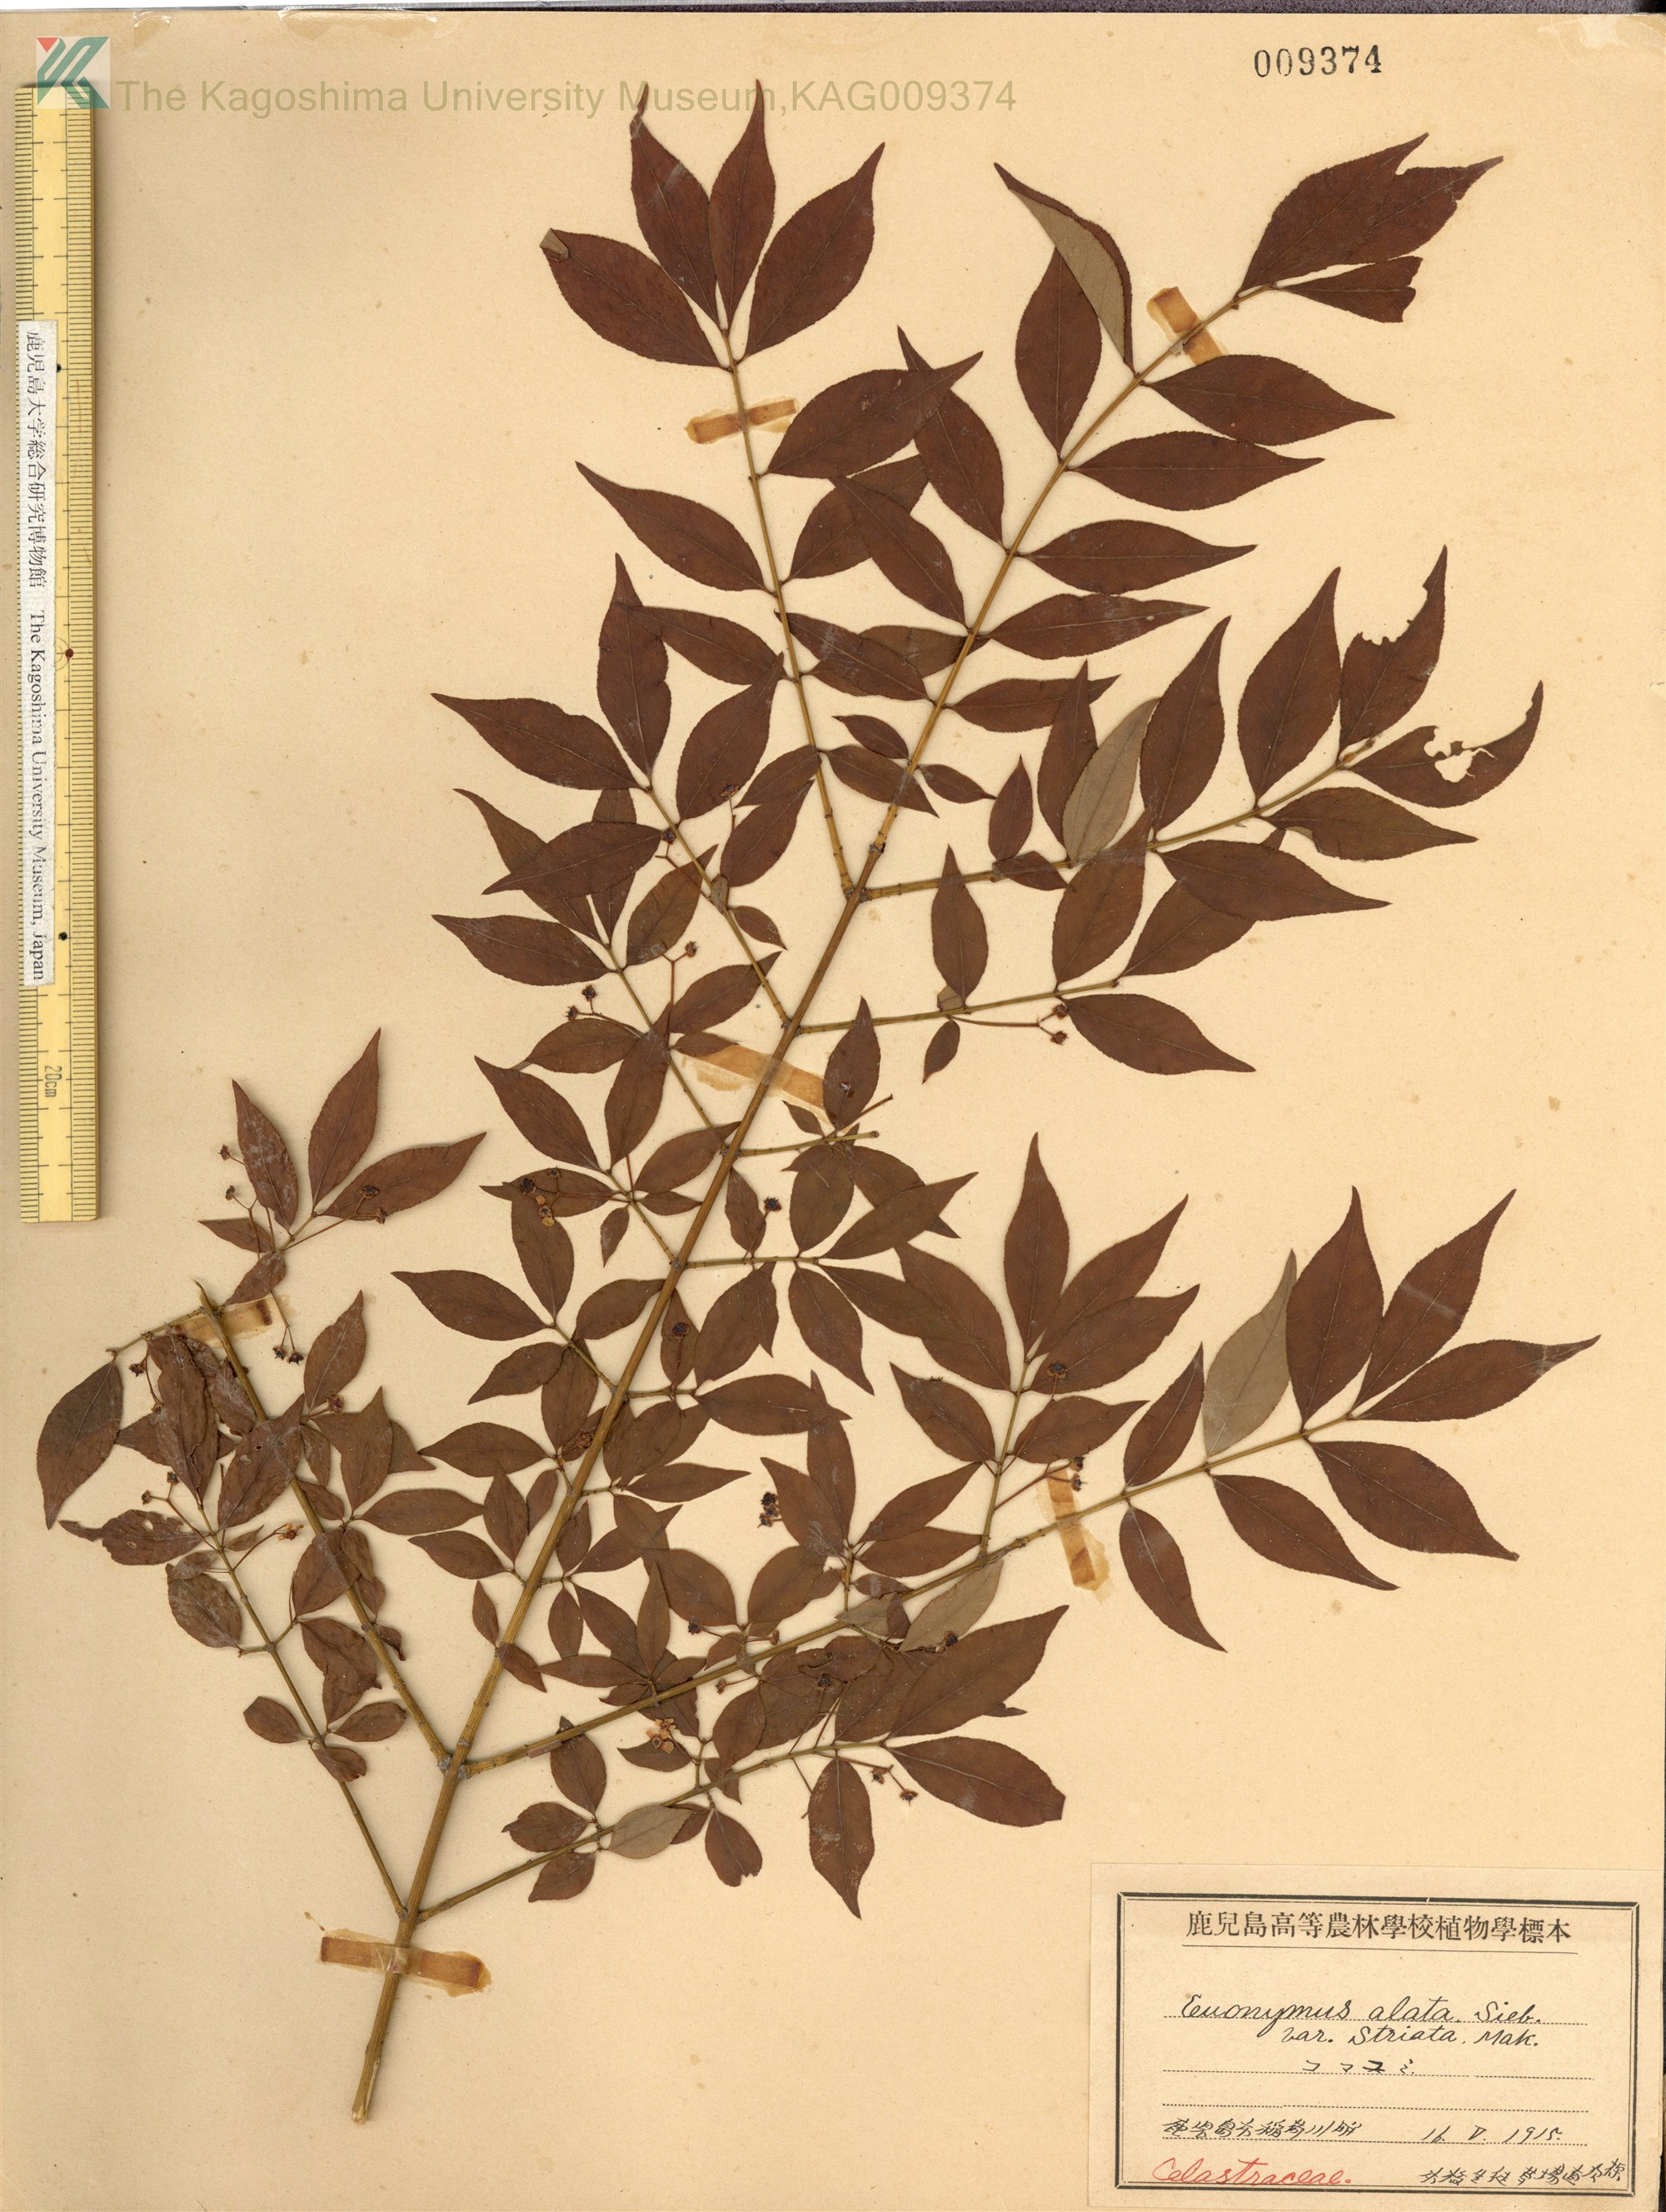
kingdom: Plantae
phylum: Tracheophyta
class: Magnoliopsida
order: Celastrales
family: Celastraceae
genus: Euonymus
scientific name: Euonymus alatus
